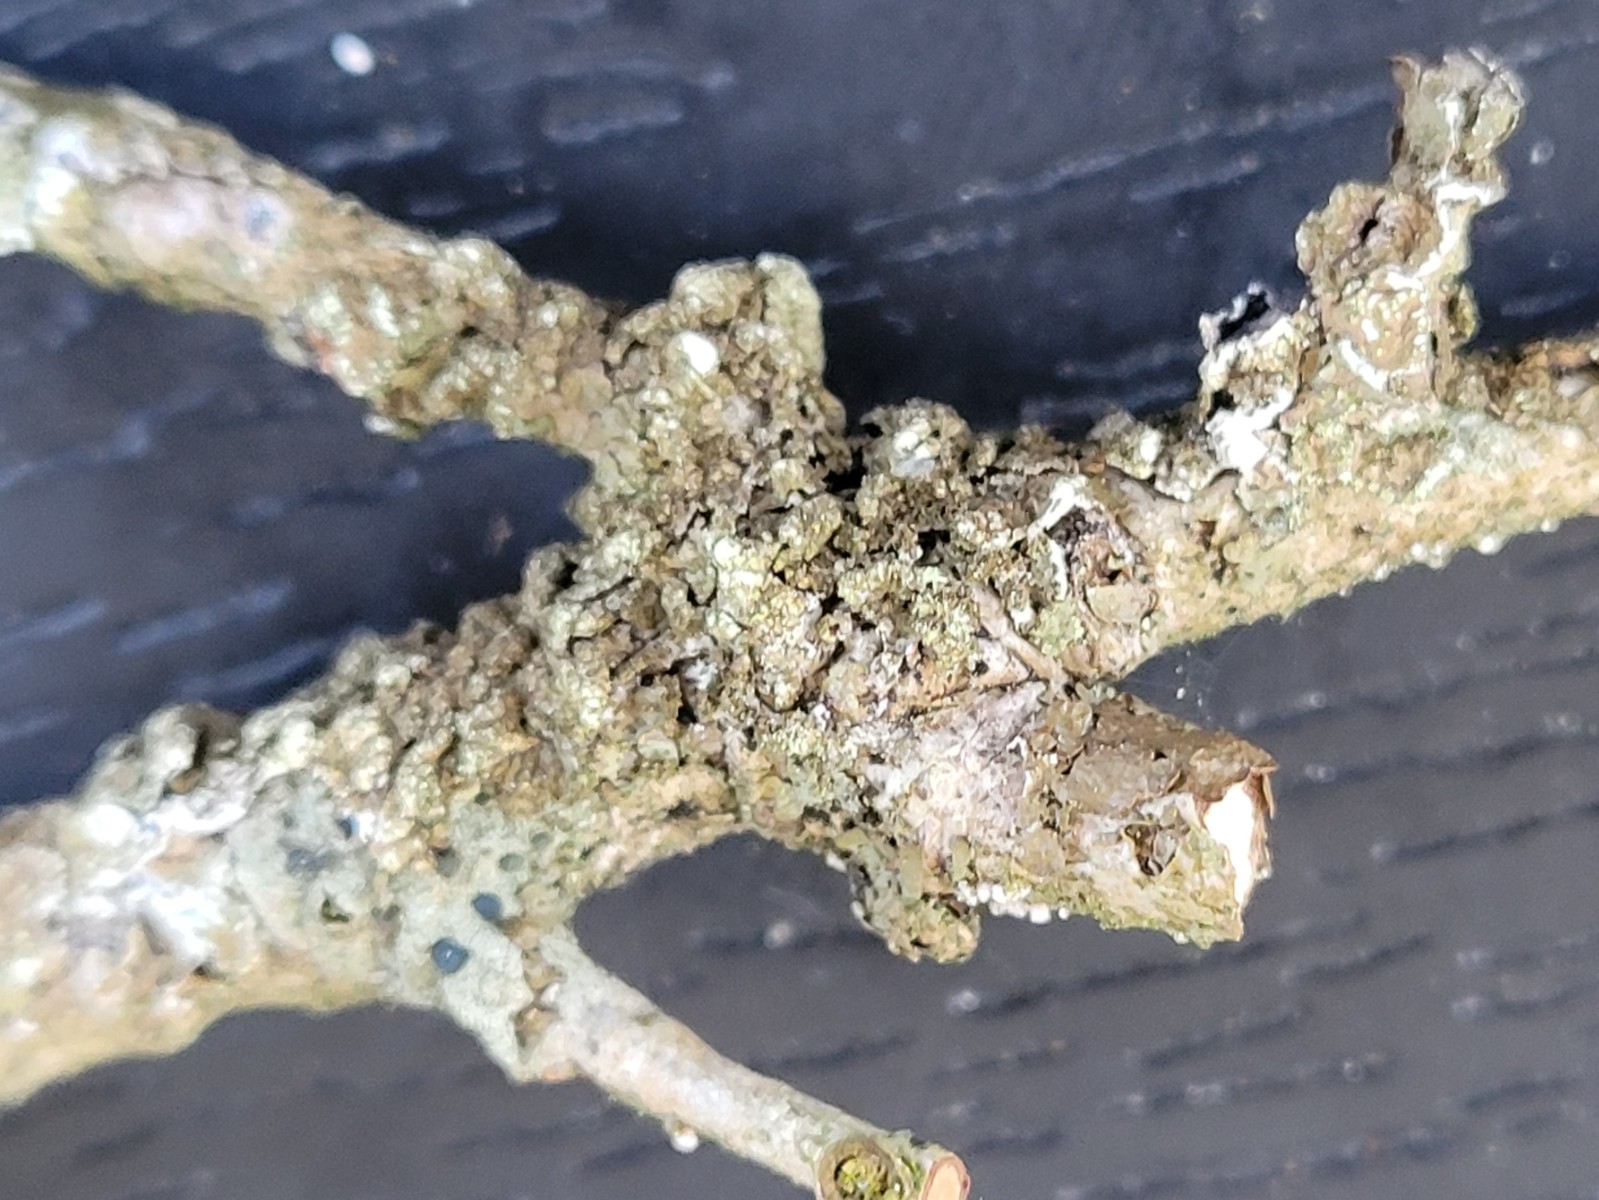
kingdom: Fungi
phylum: Ascomycota
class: Lecanoromycetes
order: Lecanorales
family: Parmeliaceae
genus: Melanelixia
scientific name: Melanelixia subaurifera
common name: guldpudret skållav
